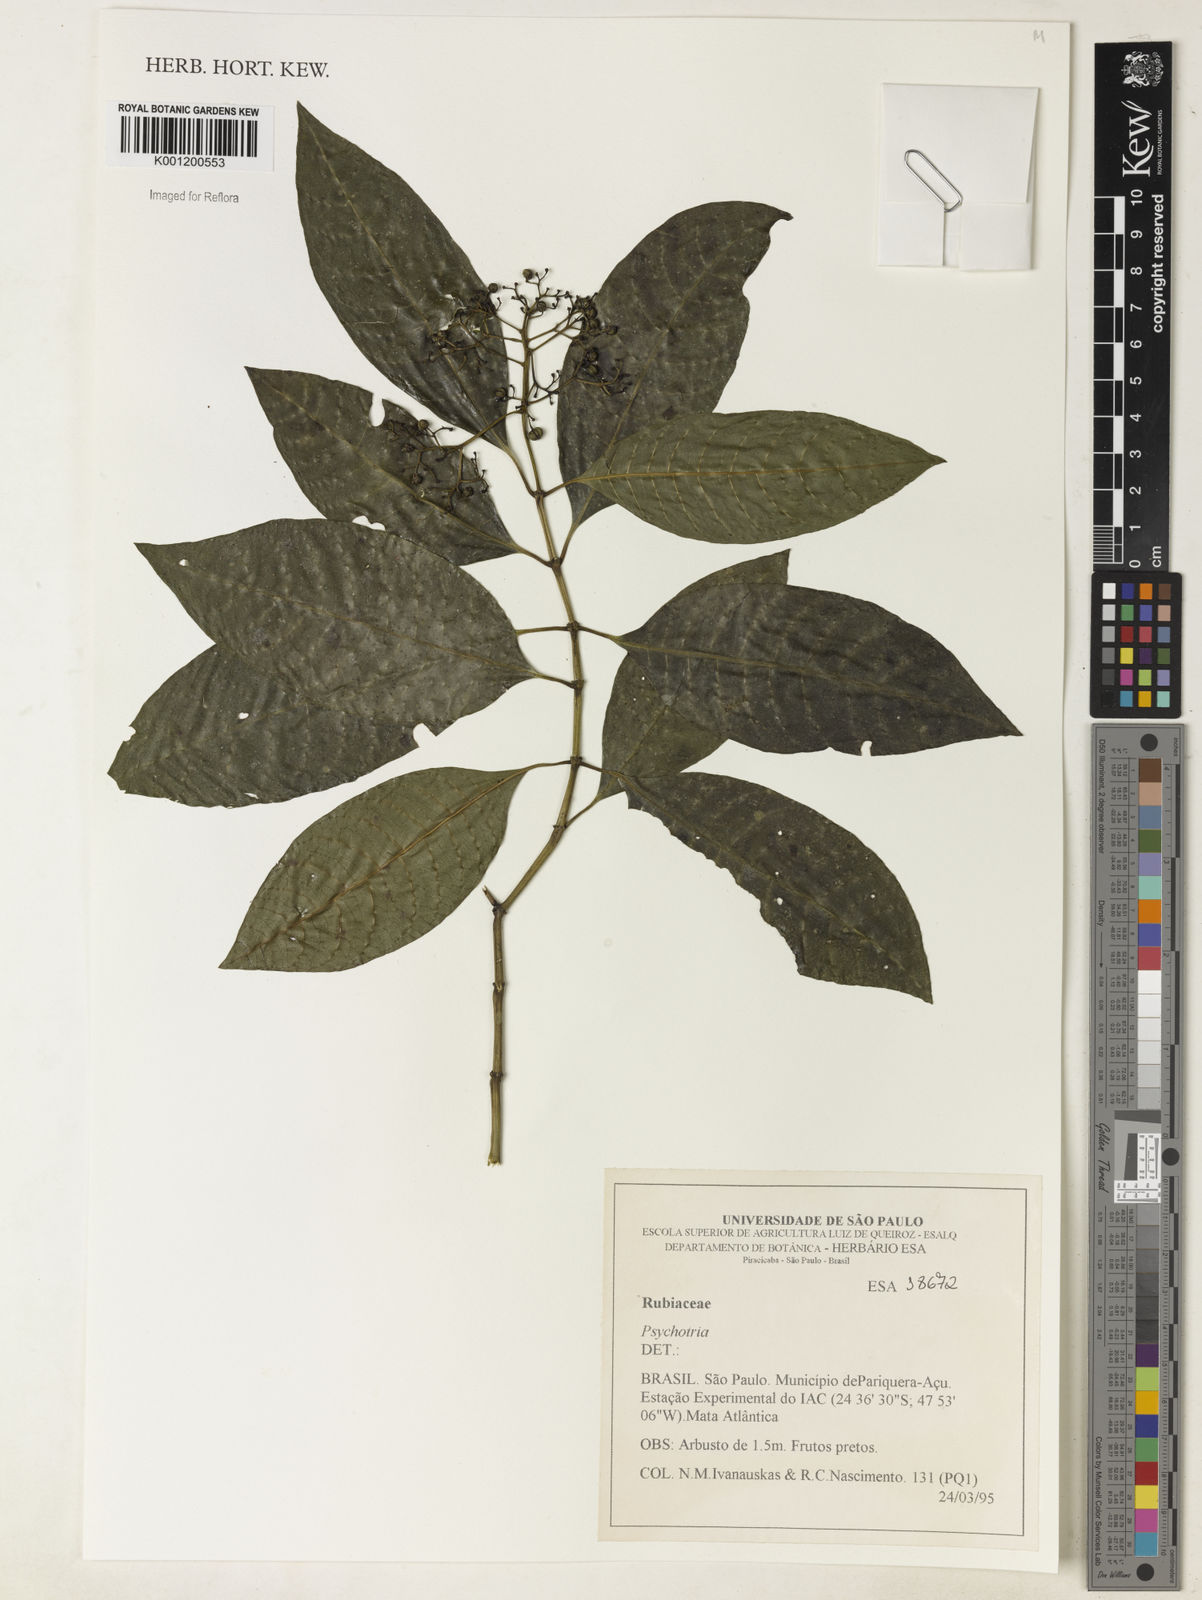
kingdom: Plantae
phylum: Tracheophyta
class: Magnoliopsida
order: Gentianales
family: Rubiaceae
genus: Psychotria
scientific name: Psychotria
